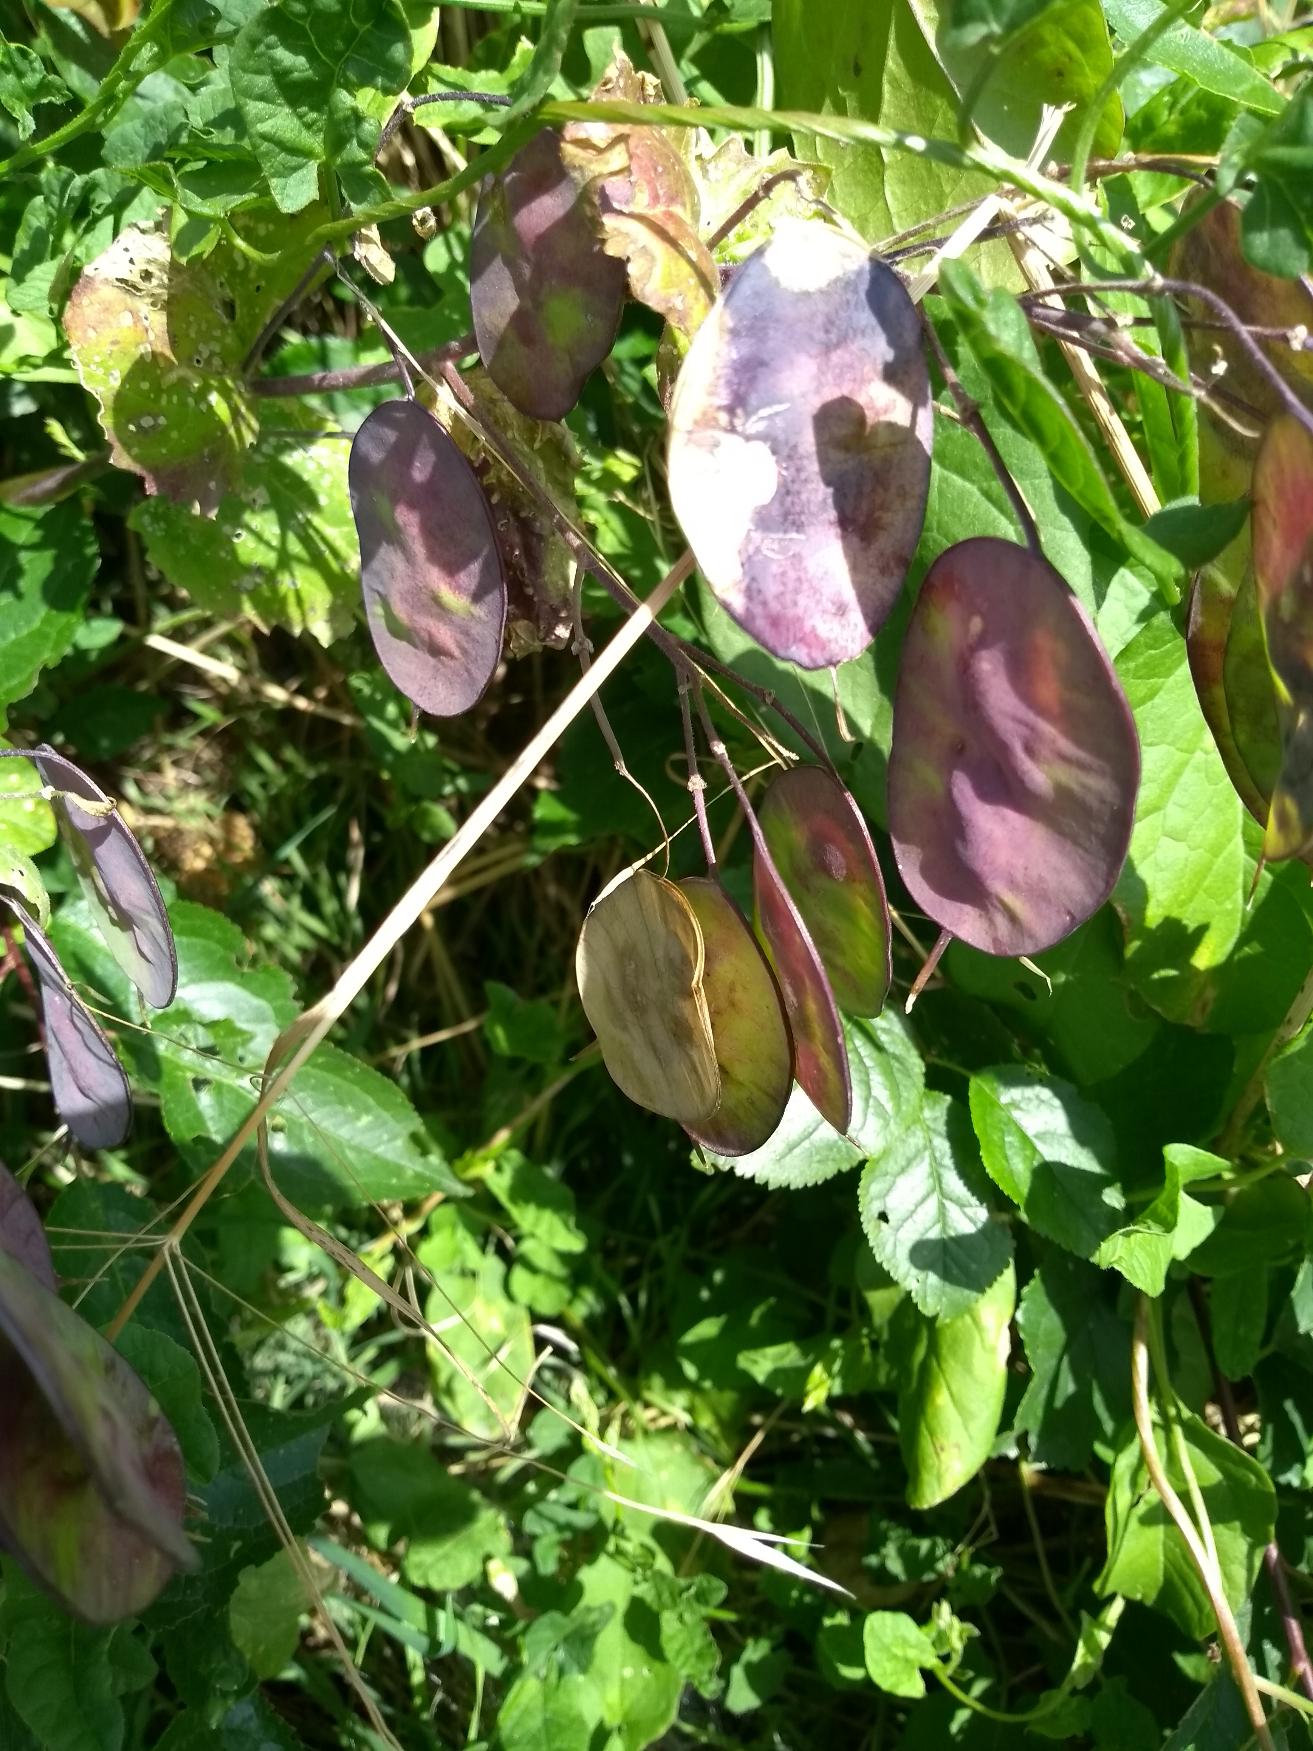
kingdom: Plantae
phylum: Tracheophyta
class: Magnoliopsida
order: Brassicales
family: Brassicaceae
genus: Lunaria
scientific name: Lunaria annua
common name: Judaspenge
